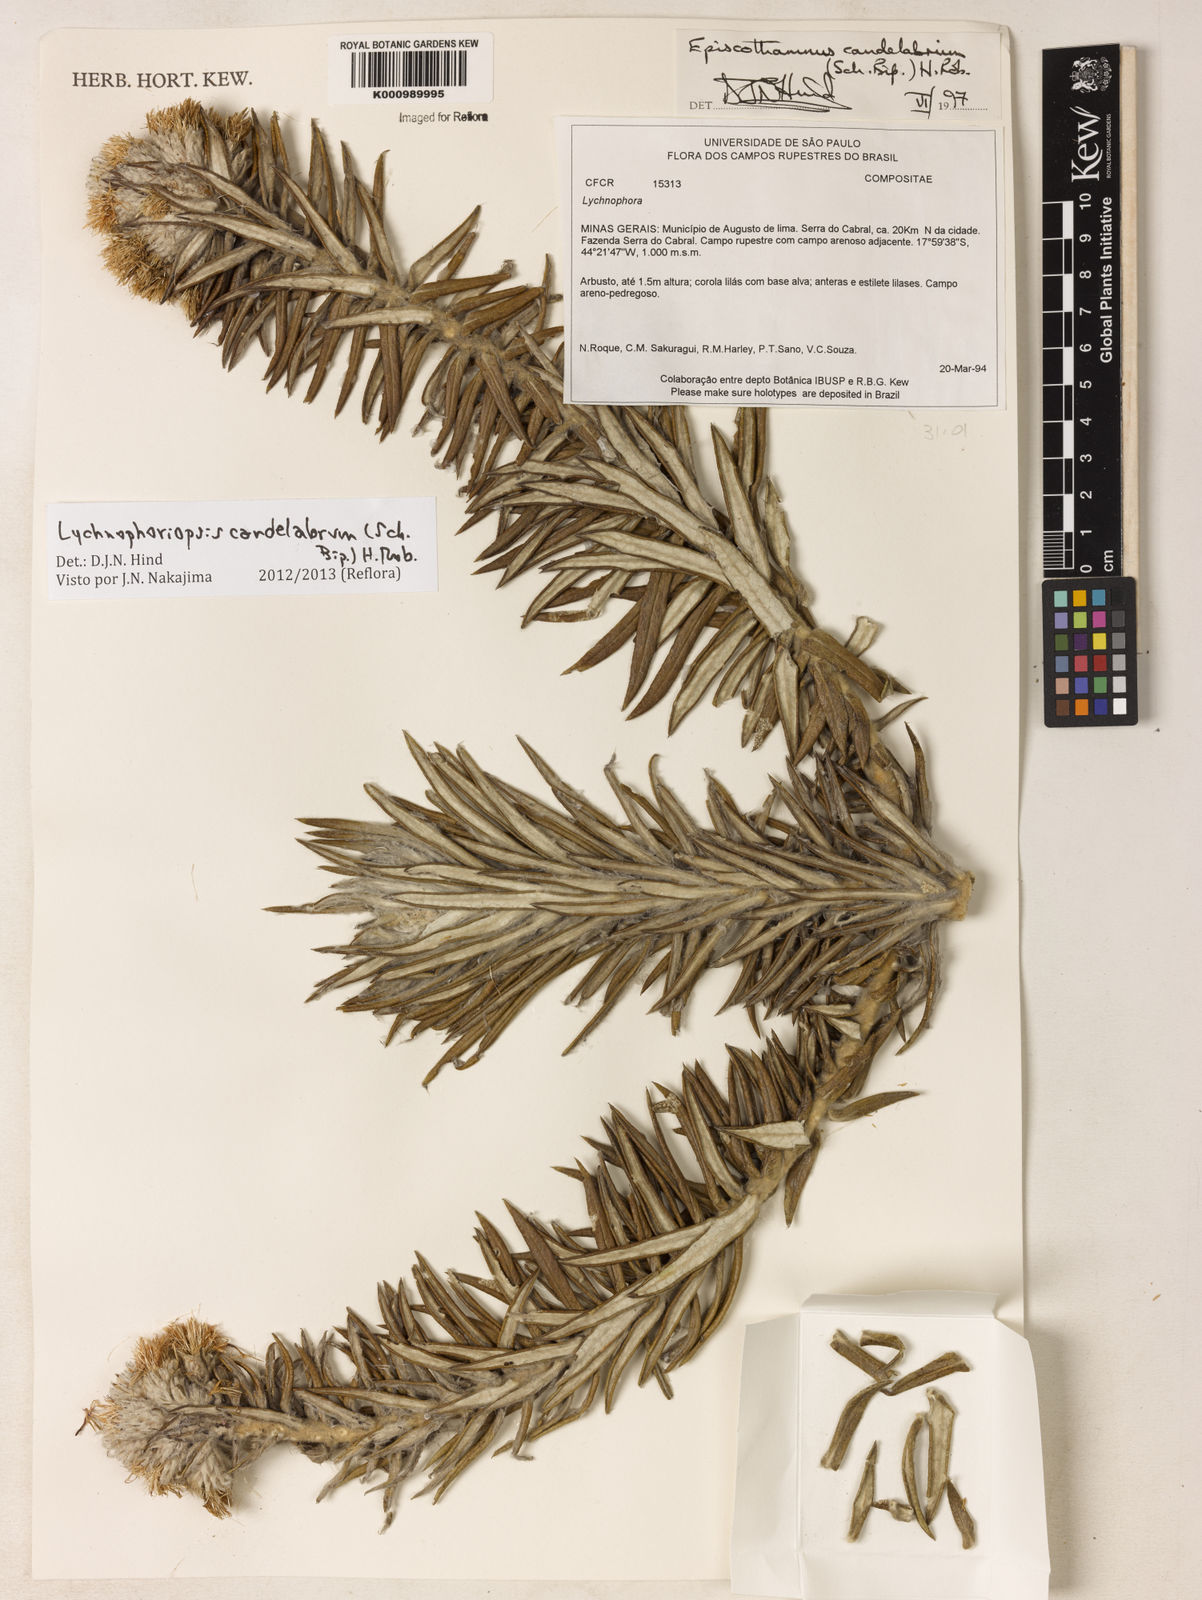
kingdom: Plantae
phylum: Tracheophyta
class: Magnoliopsida
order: Asterales
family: Asteraceae
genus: Lychnophora
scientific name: Lychnophora candelabrum
